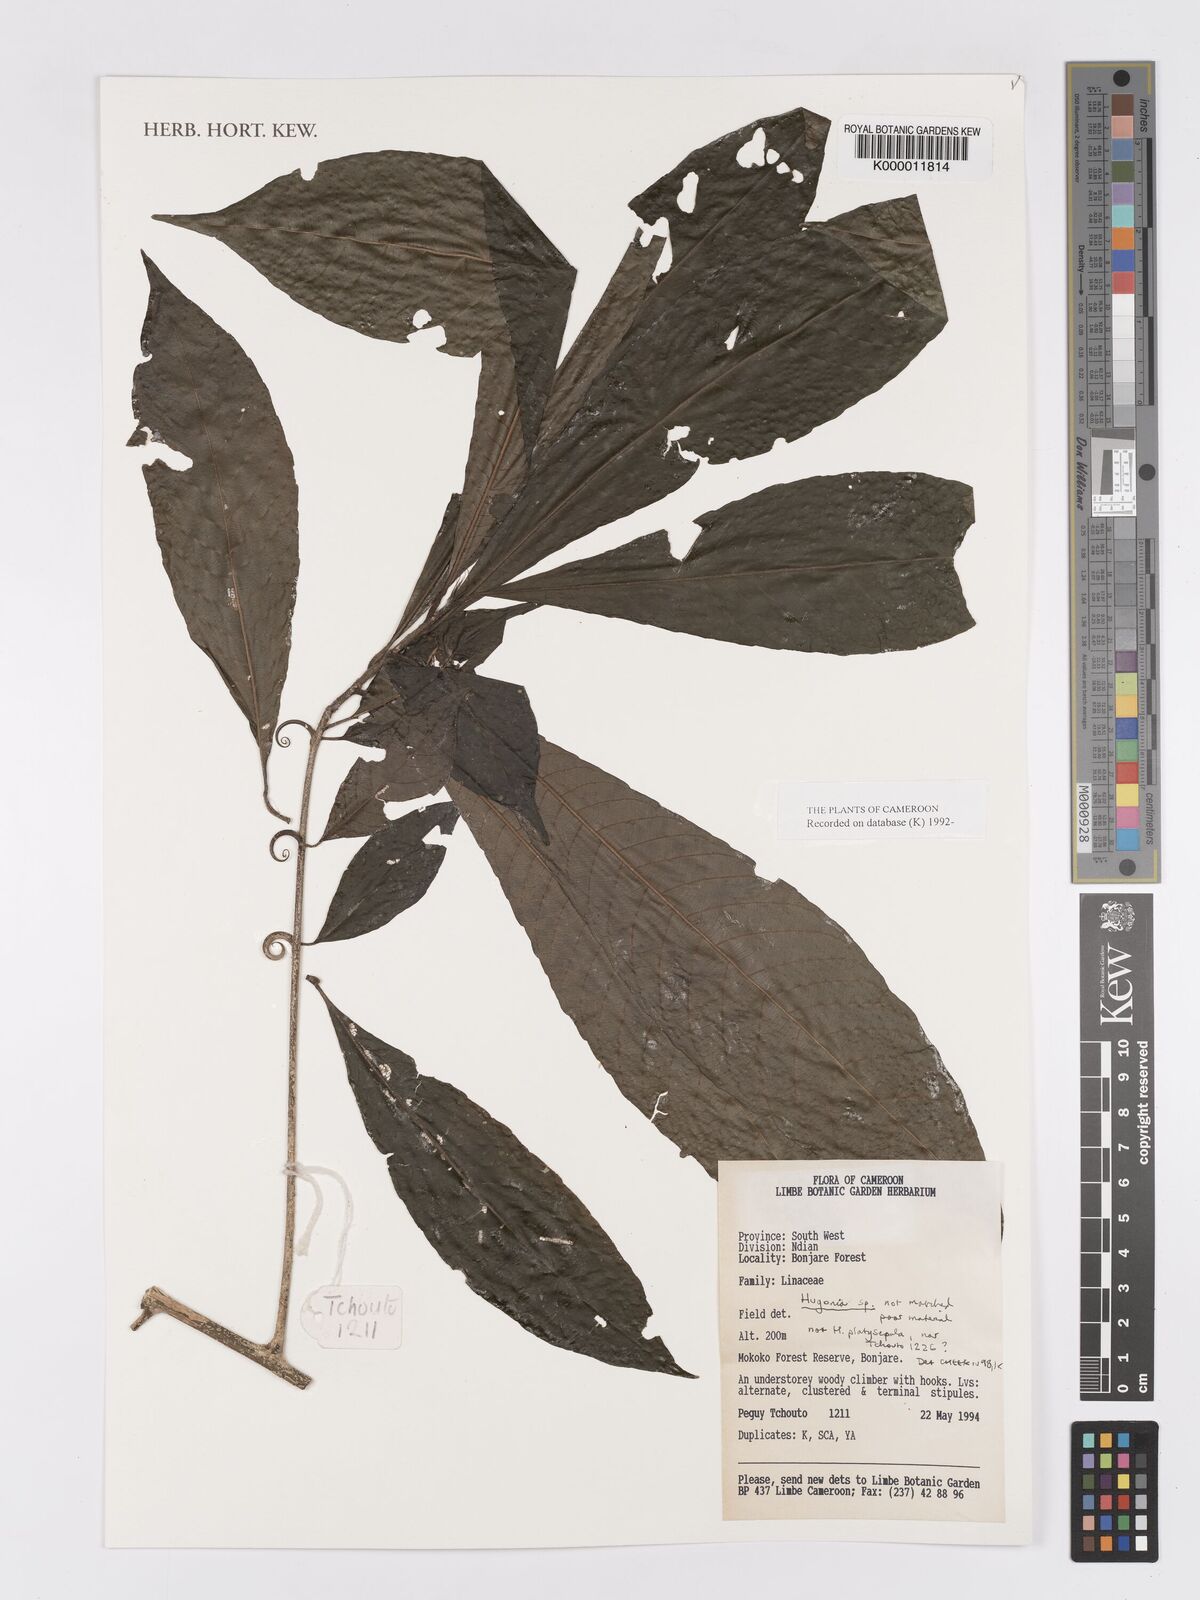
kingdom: Plantae
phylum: Tracheophyta
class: Magnoliopsida
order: Malpighiales
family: Linaceae
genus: Hugonia
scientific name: Hugonia
